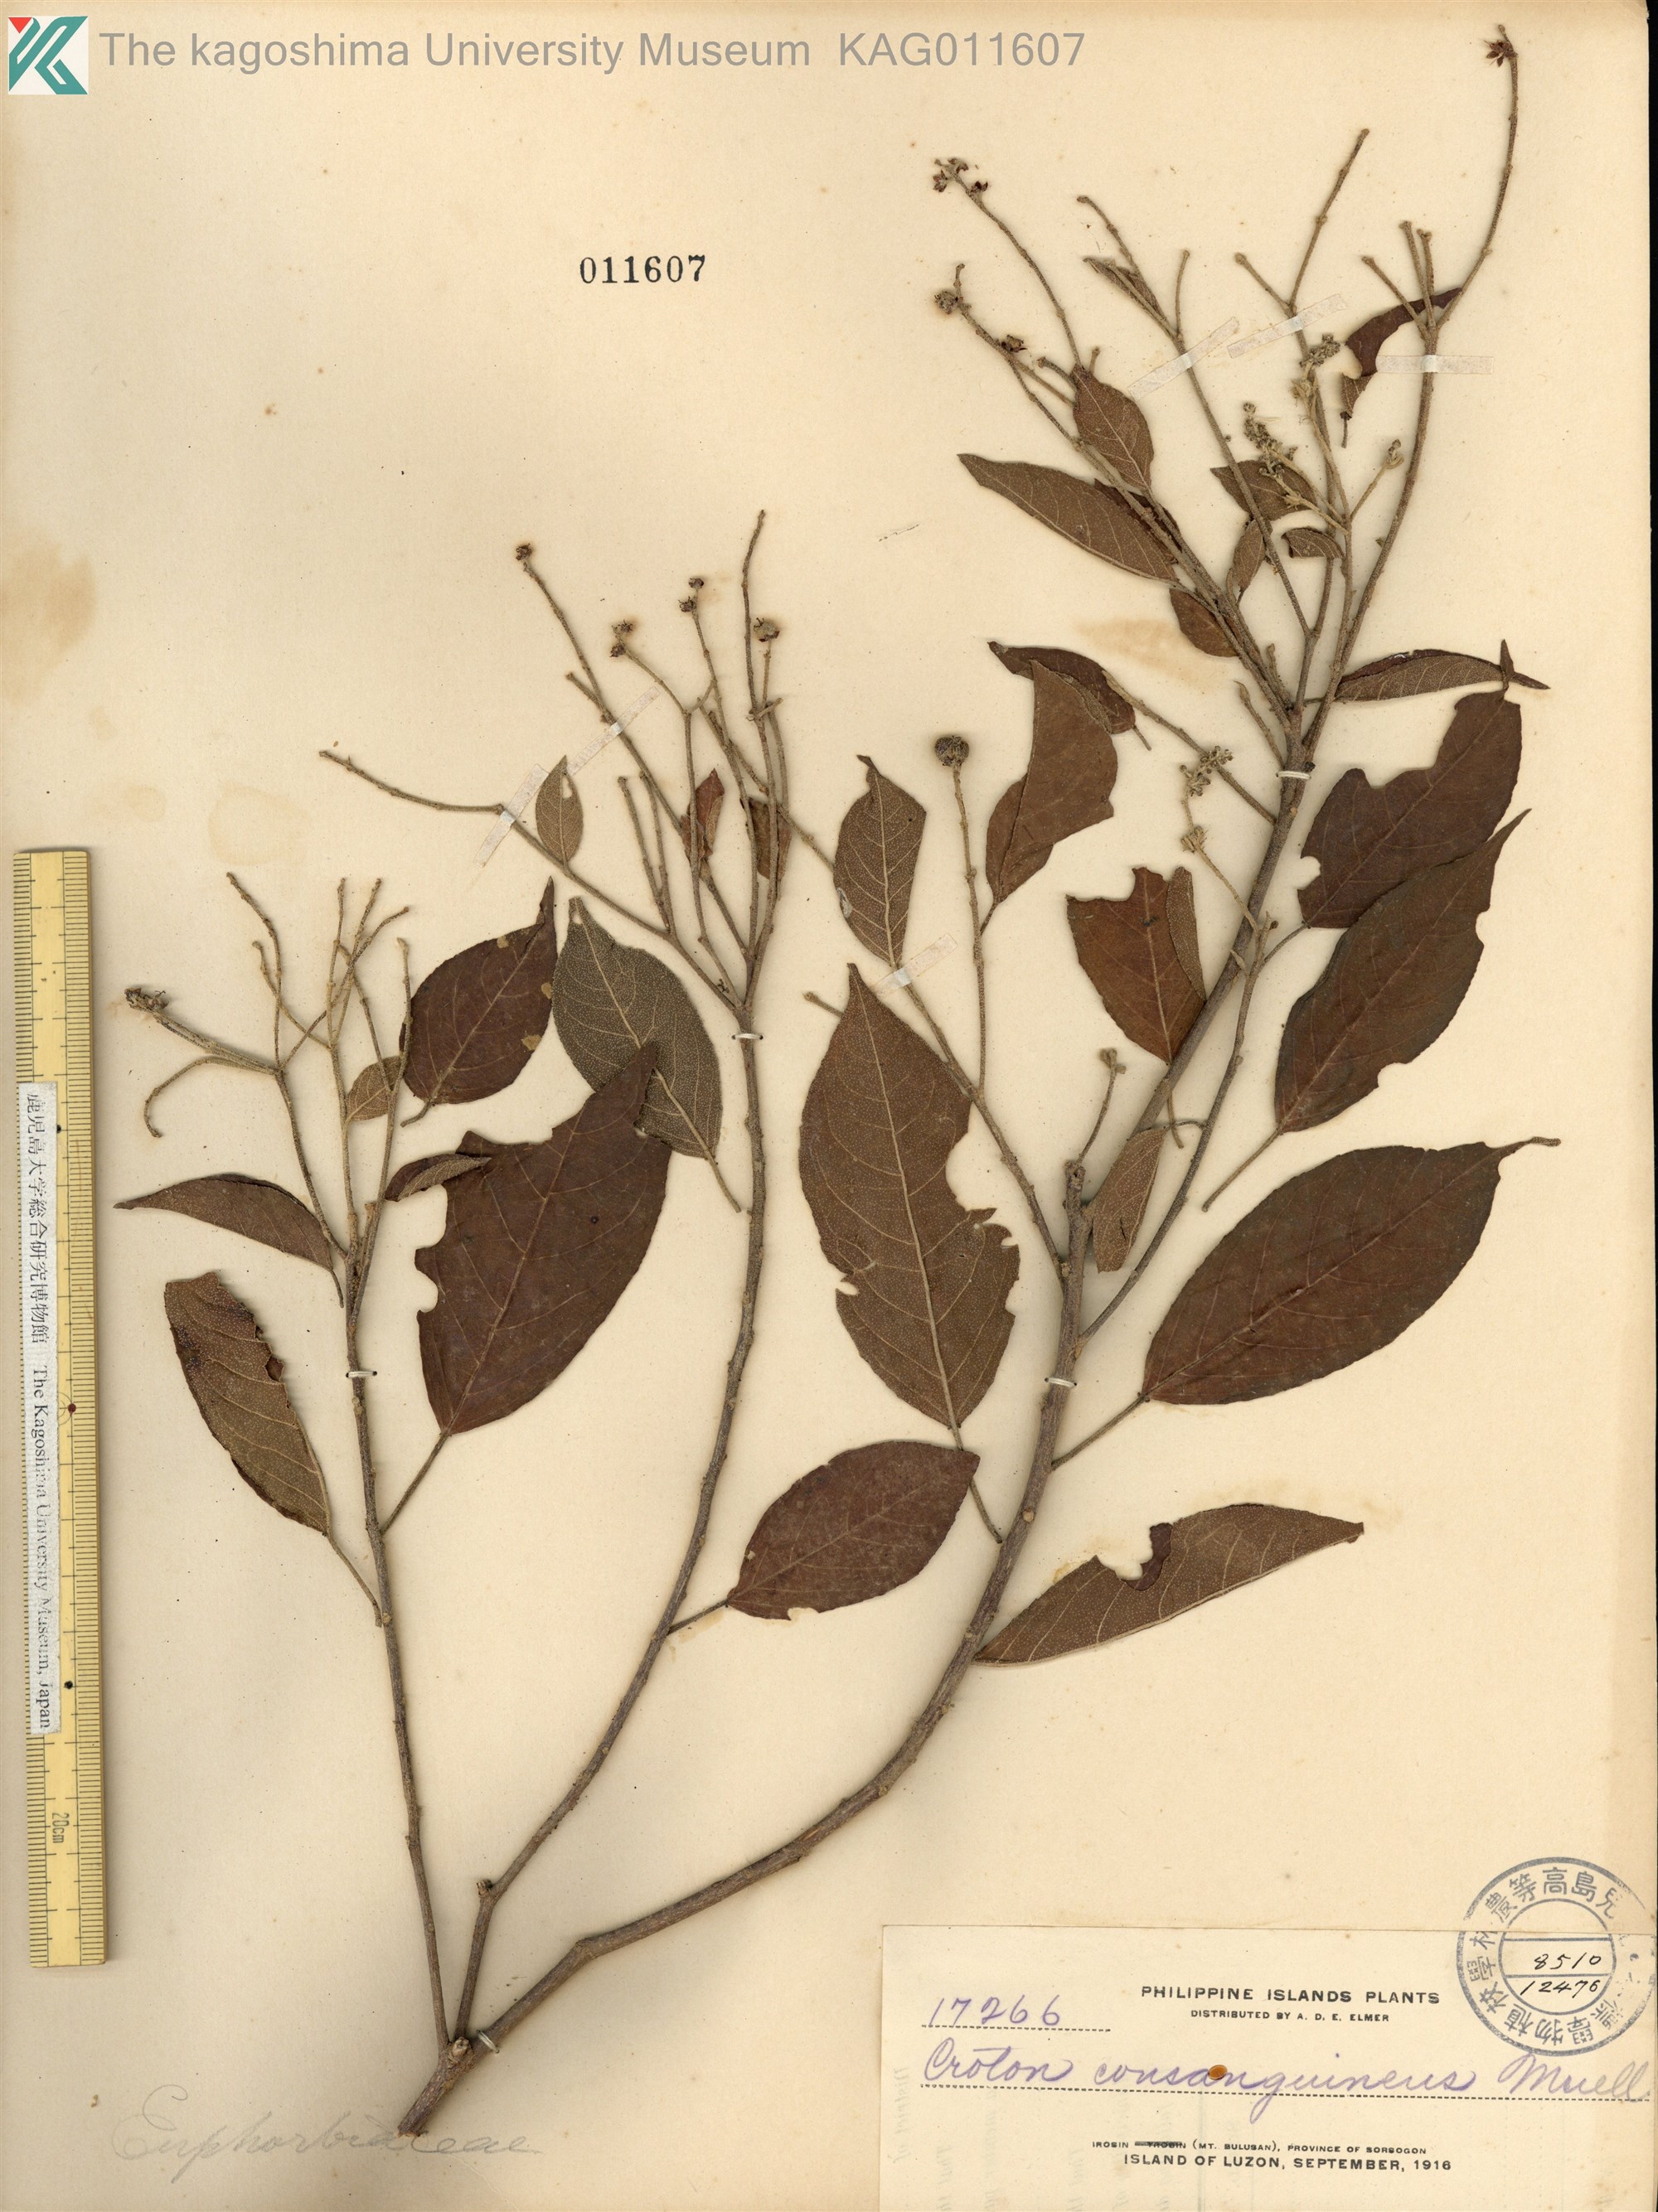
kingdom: Plantae
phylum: Tracheophyta
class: Magnoliopsida
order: Malpighiales
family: Euphorbiaceae
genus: Croton
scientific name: Croton consanguineus
